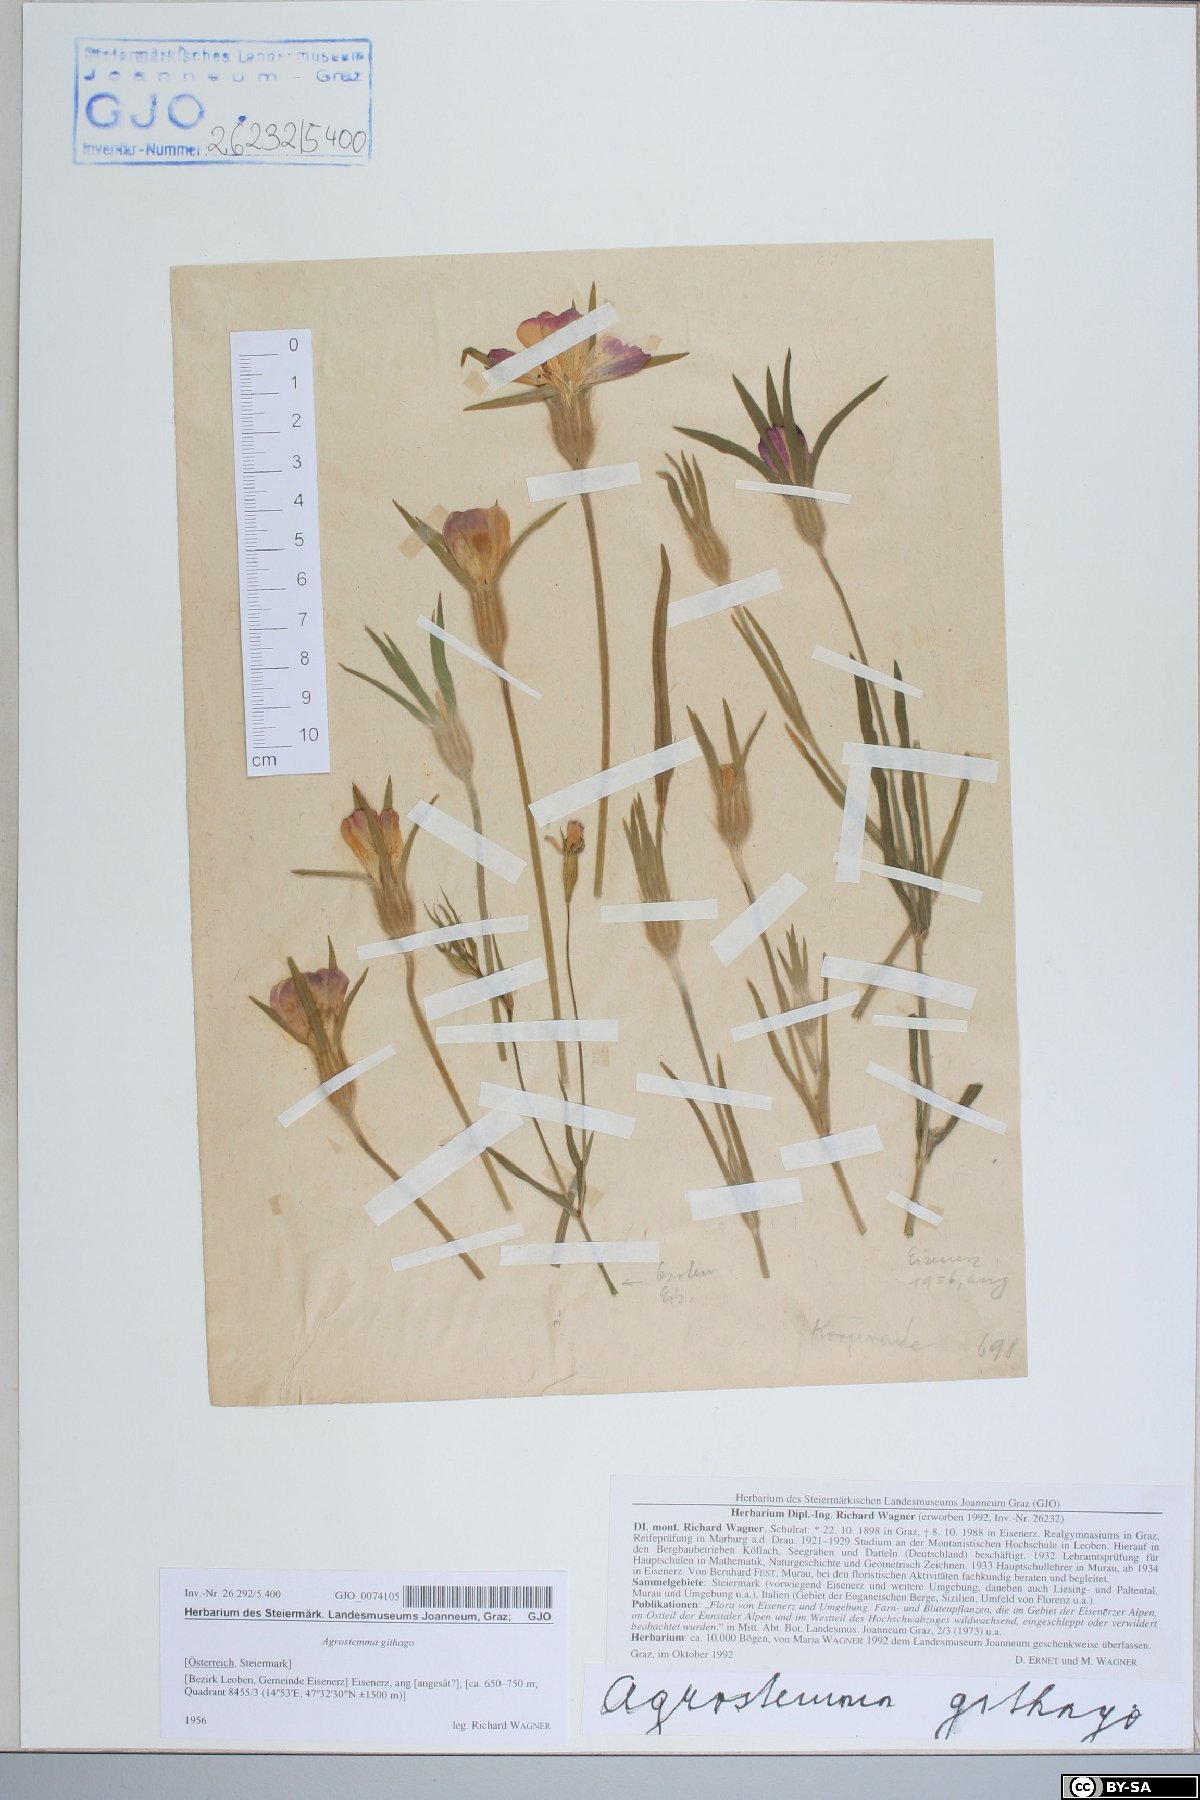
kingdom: Plantae
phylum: Tracheophyta
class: Magnoliopsida
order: Caryophyllales
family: Caryophyllaceae
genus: Agrostemma
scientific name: Agrostemma githago
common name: Common corncockle
